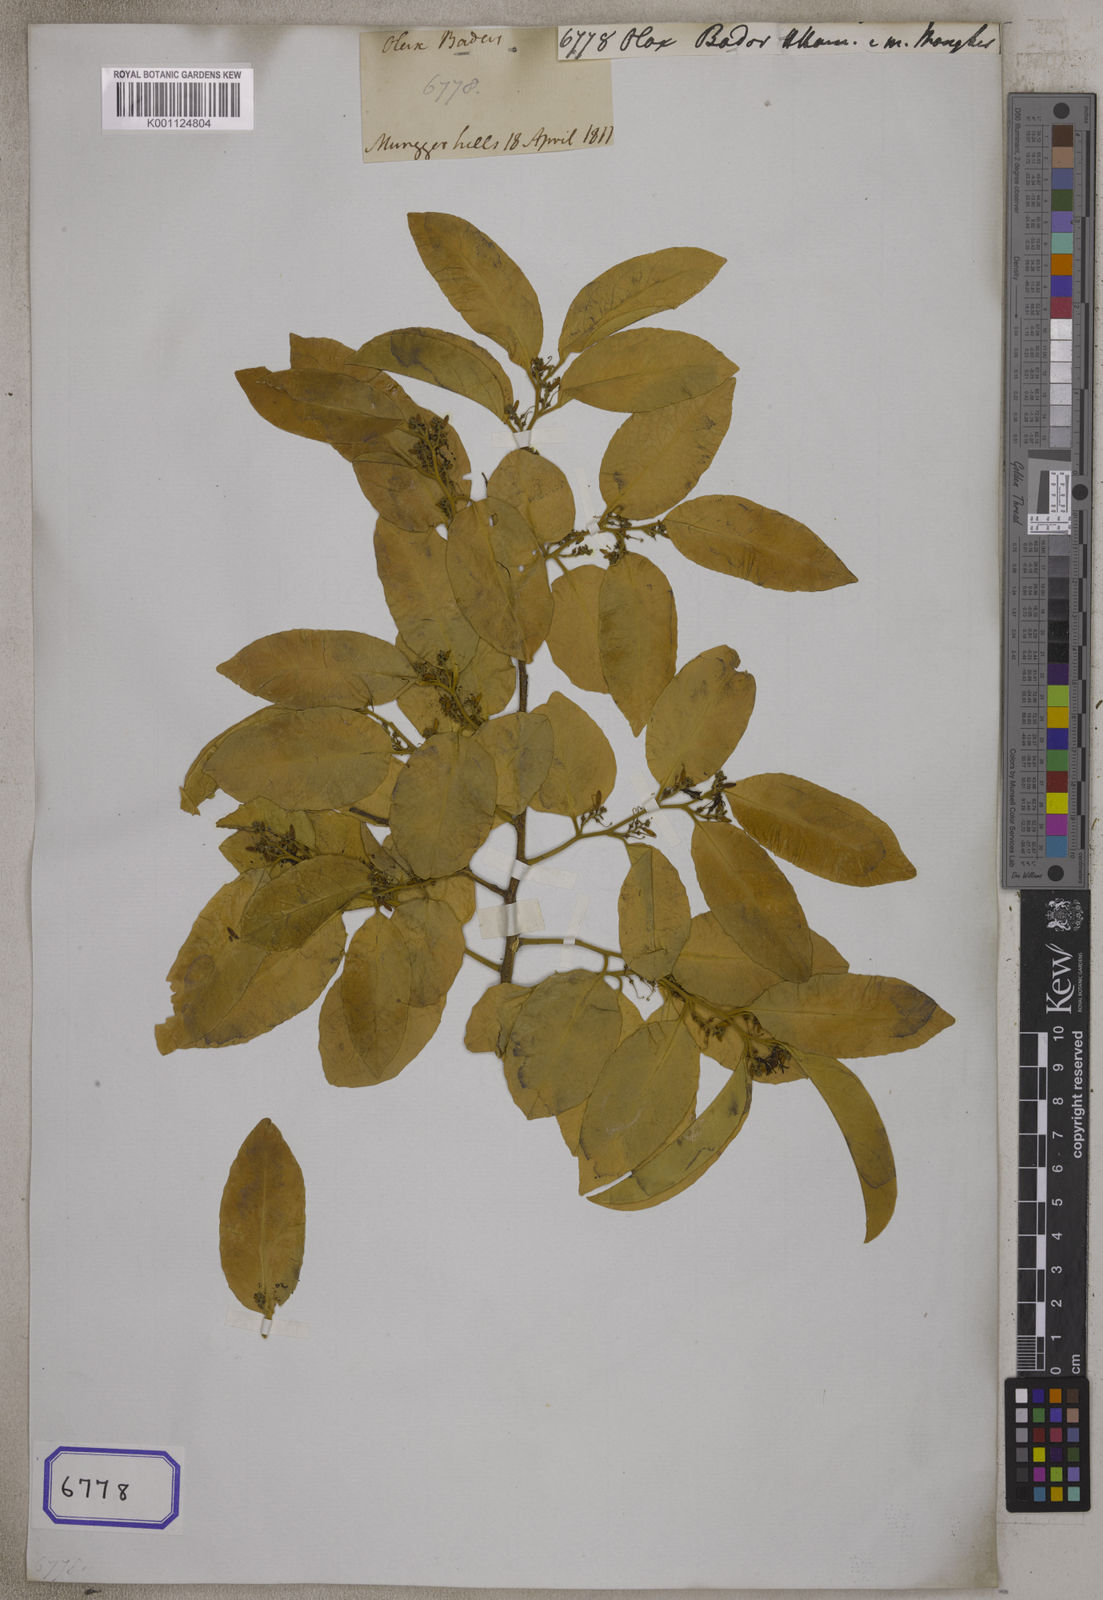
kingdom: Plantae
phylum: Tracheophyta
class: Magnoliopsida
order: Santalales
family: Olacaceae
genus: Olax
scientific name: Olax psittacorum
